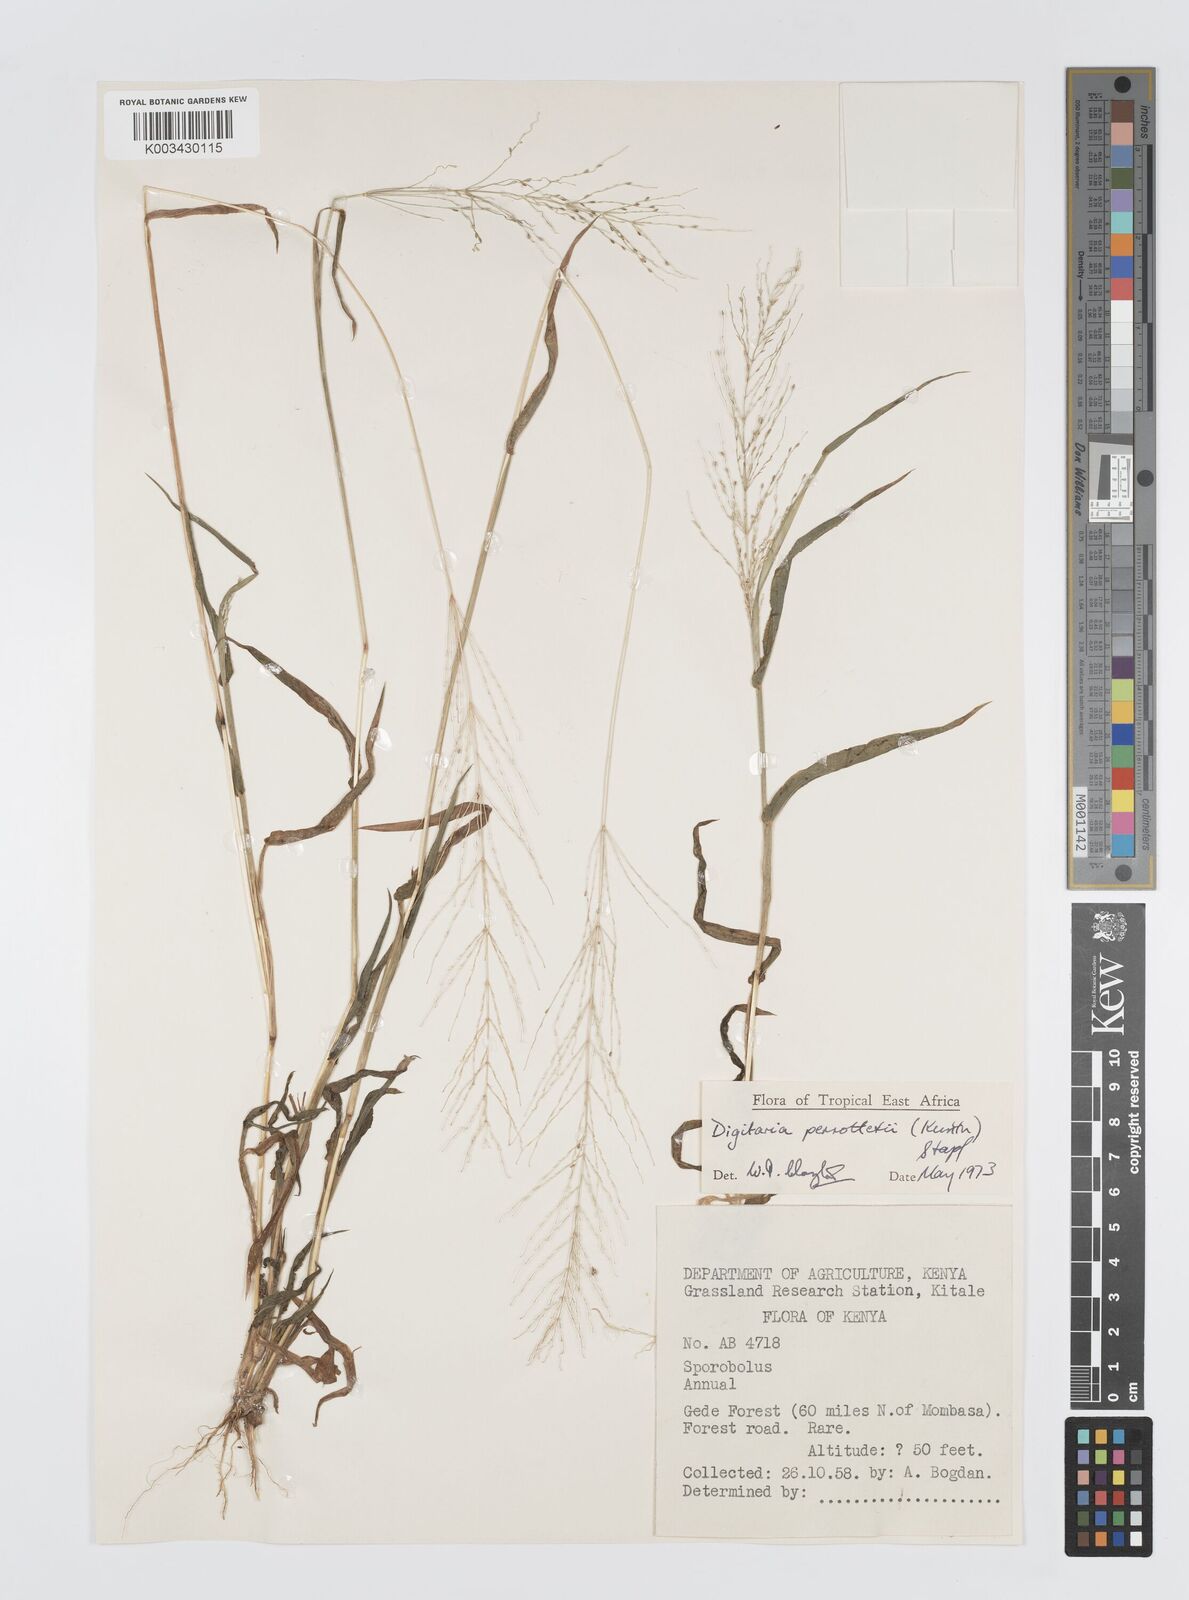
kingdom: Plantae
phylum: Tracheophyta
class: Liliopsida
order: Poales
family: Poaceae
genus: Digitaria
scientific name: Digitaria perrottetii
